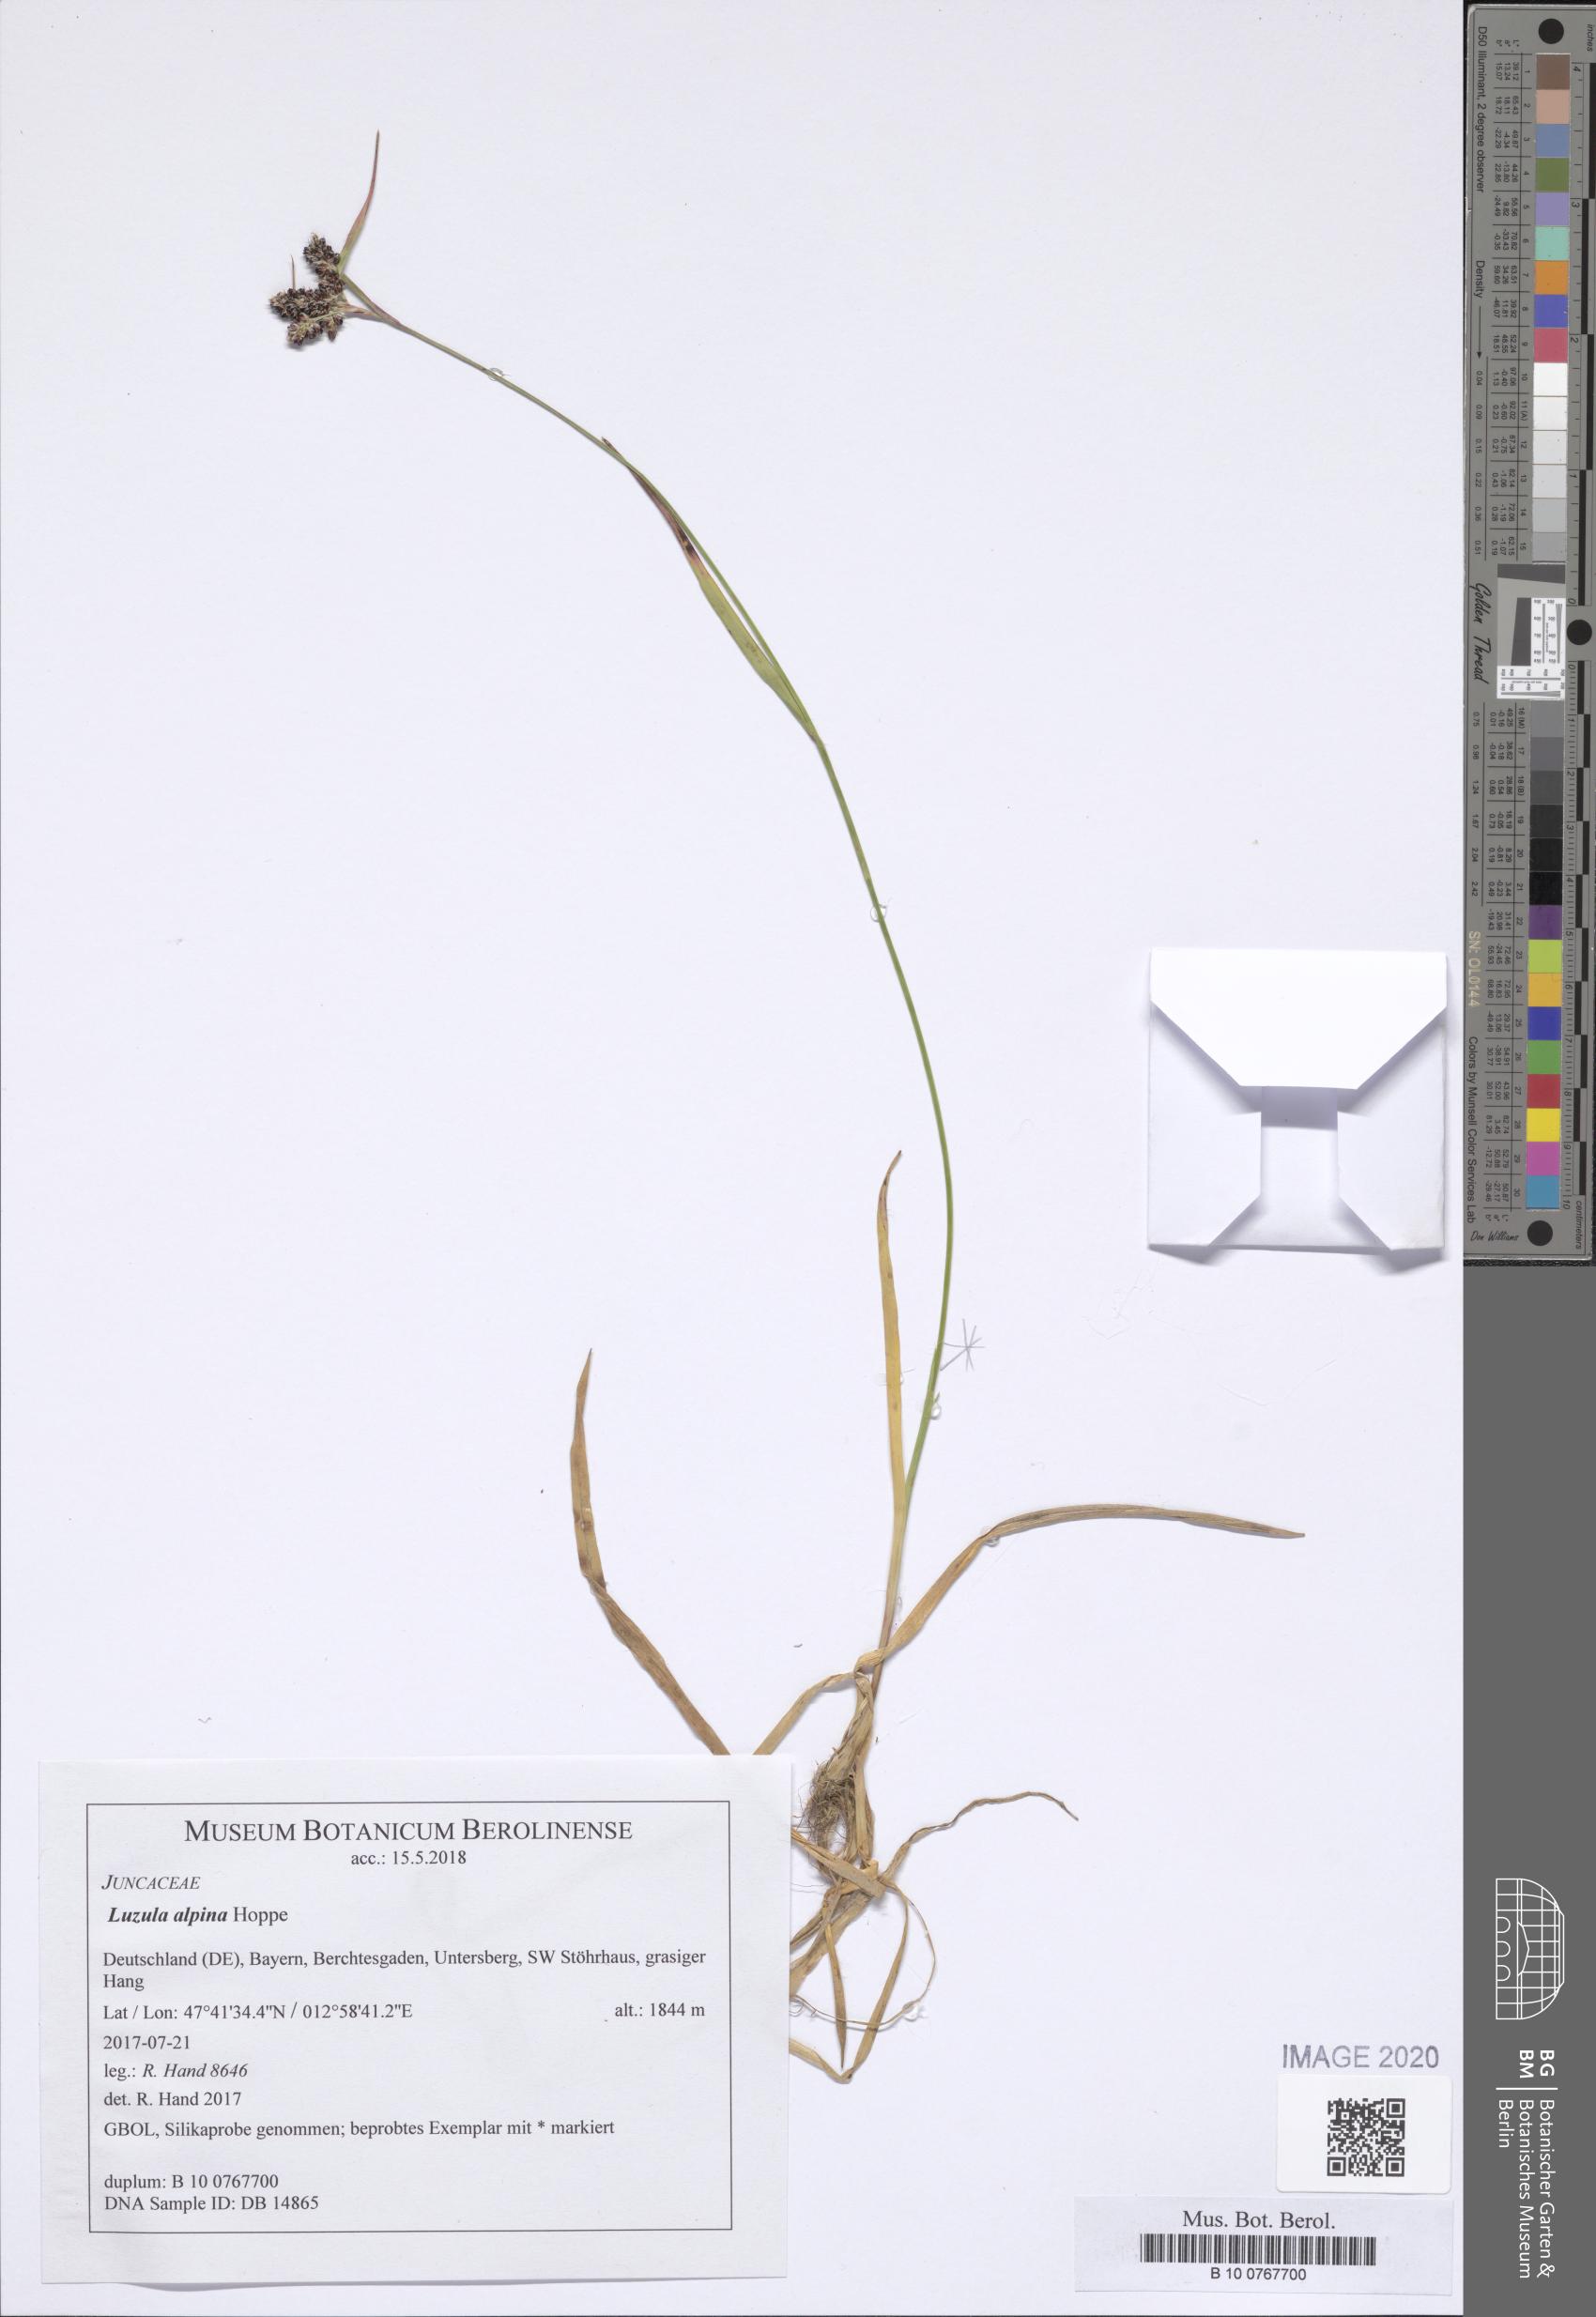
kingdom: Plantae
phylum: Tracheophyta
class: Liliopsida
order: Poales
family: Juncaceae
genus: Luzula
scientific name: Luzula alpina
